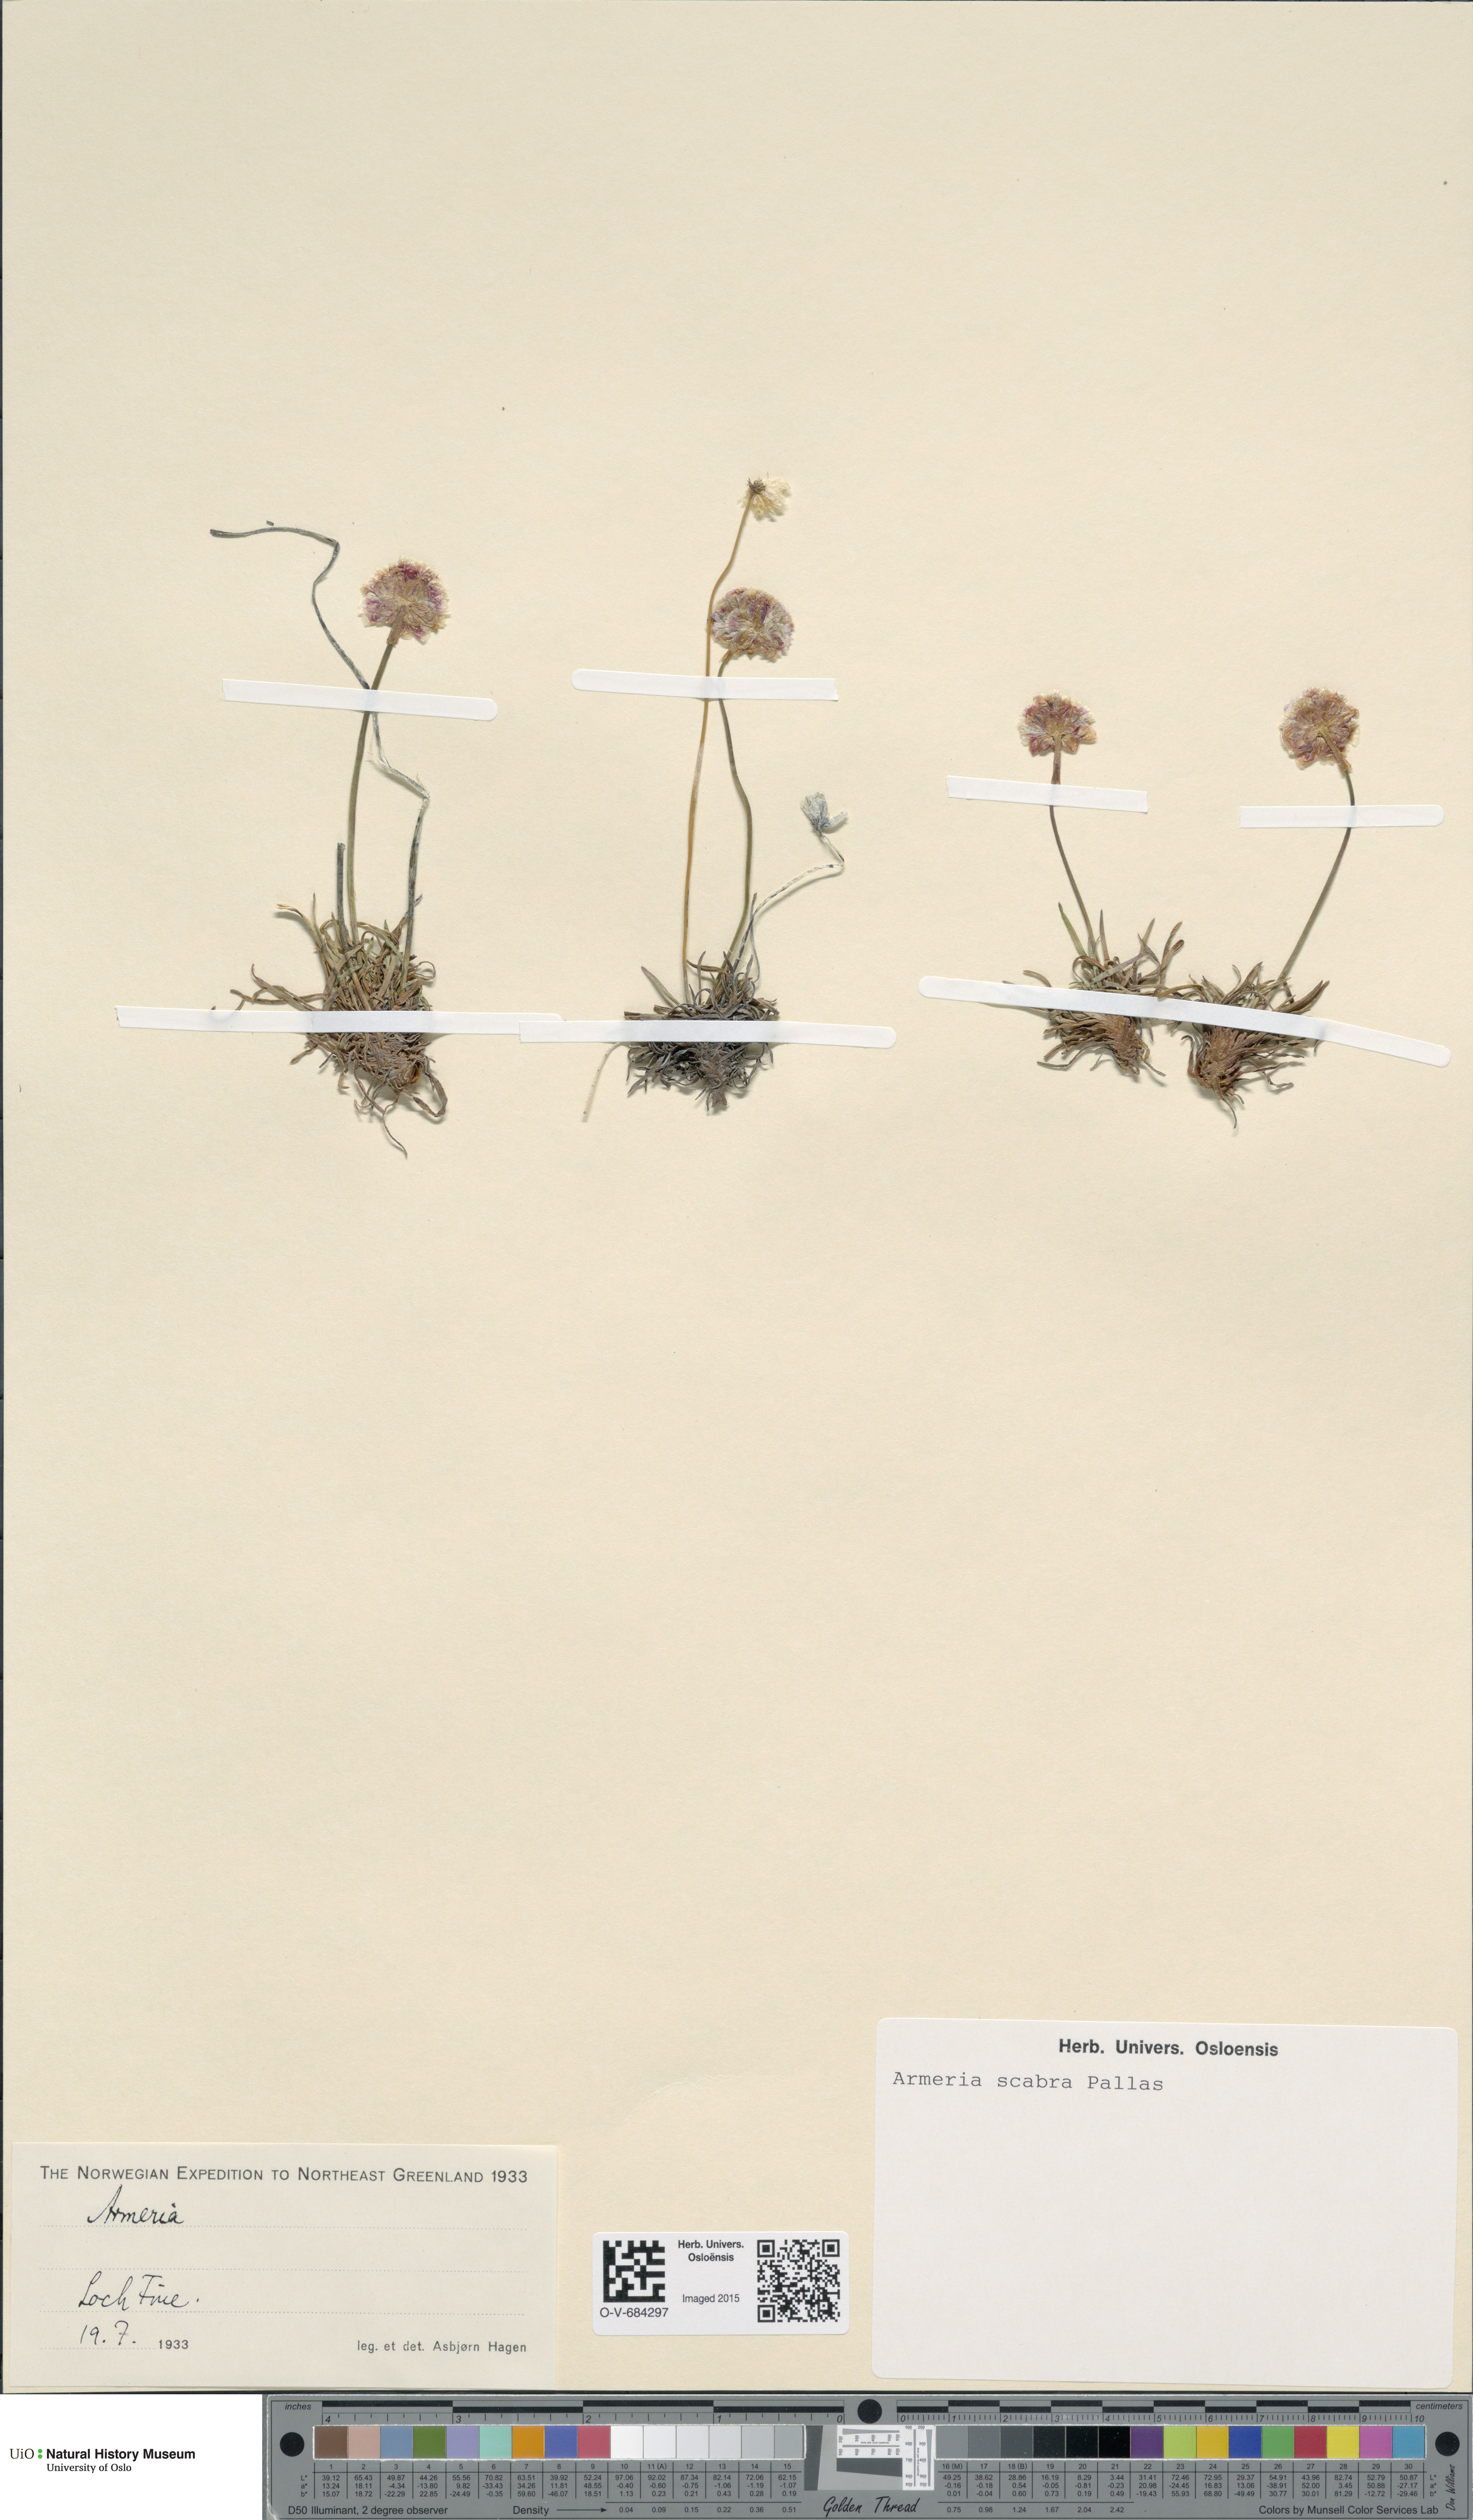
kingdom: Plantae
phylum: Tracheophyta
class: Magnoliopsida
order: Caryophyllales
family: Plumbaginaceae
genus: Armeria
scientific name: Armeria maritima
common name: Thrift
